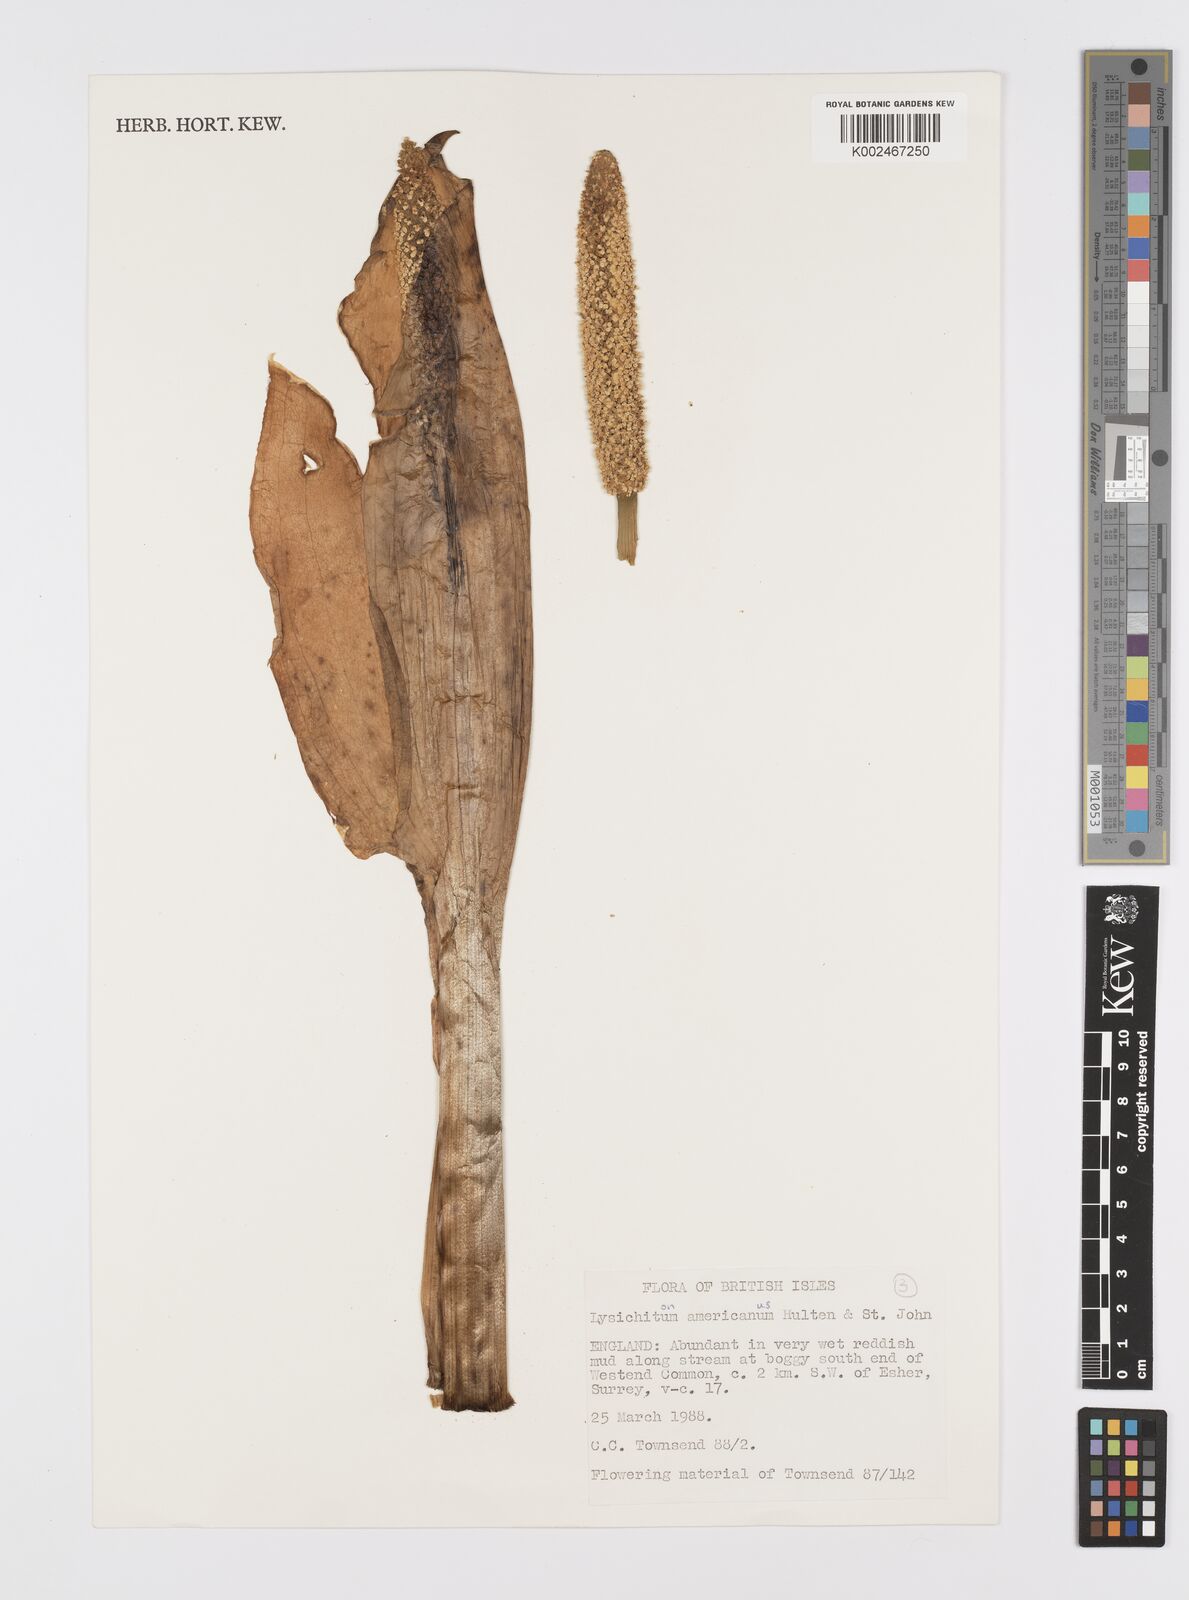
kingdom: Plantae
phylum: Tracheophyta
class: Liliopsida
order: Alismatales
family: Araceae
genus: Lysichiton
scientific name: Lysichiton americanus
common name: American skunk cabbage
